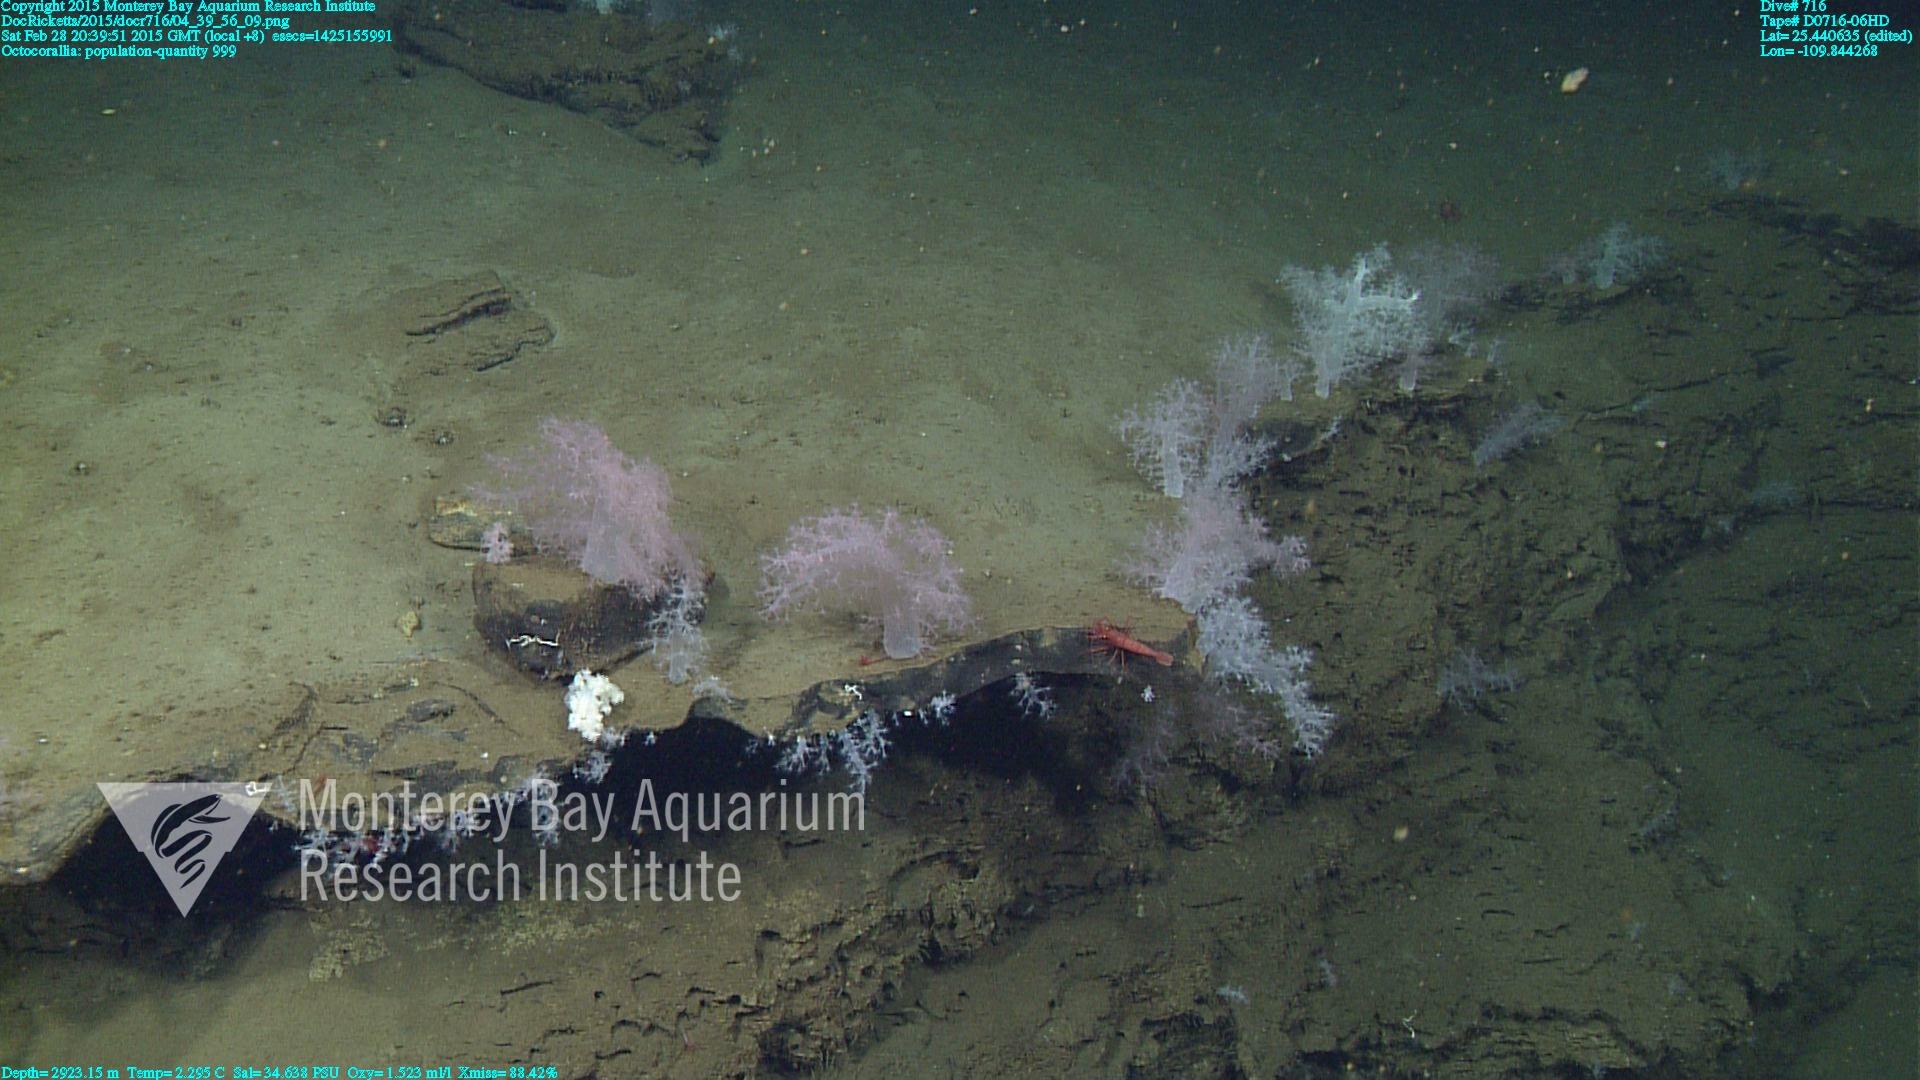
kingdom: Animalia
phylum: Cnidaria
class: Anthozoa
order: Malacalcyonacea
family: Alcyoniidae
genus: Gersemia
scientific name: Gersemia juliepackardae
